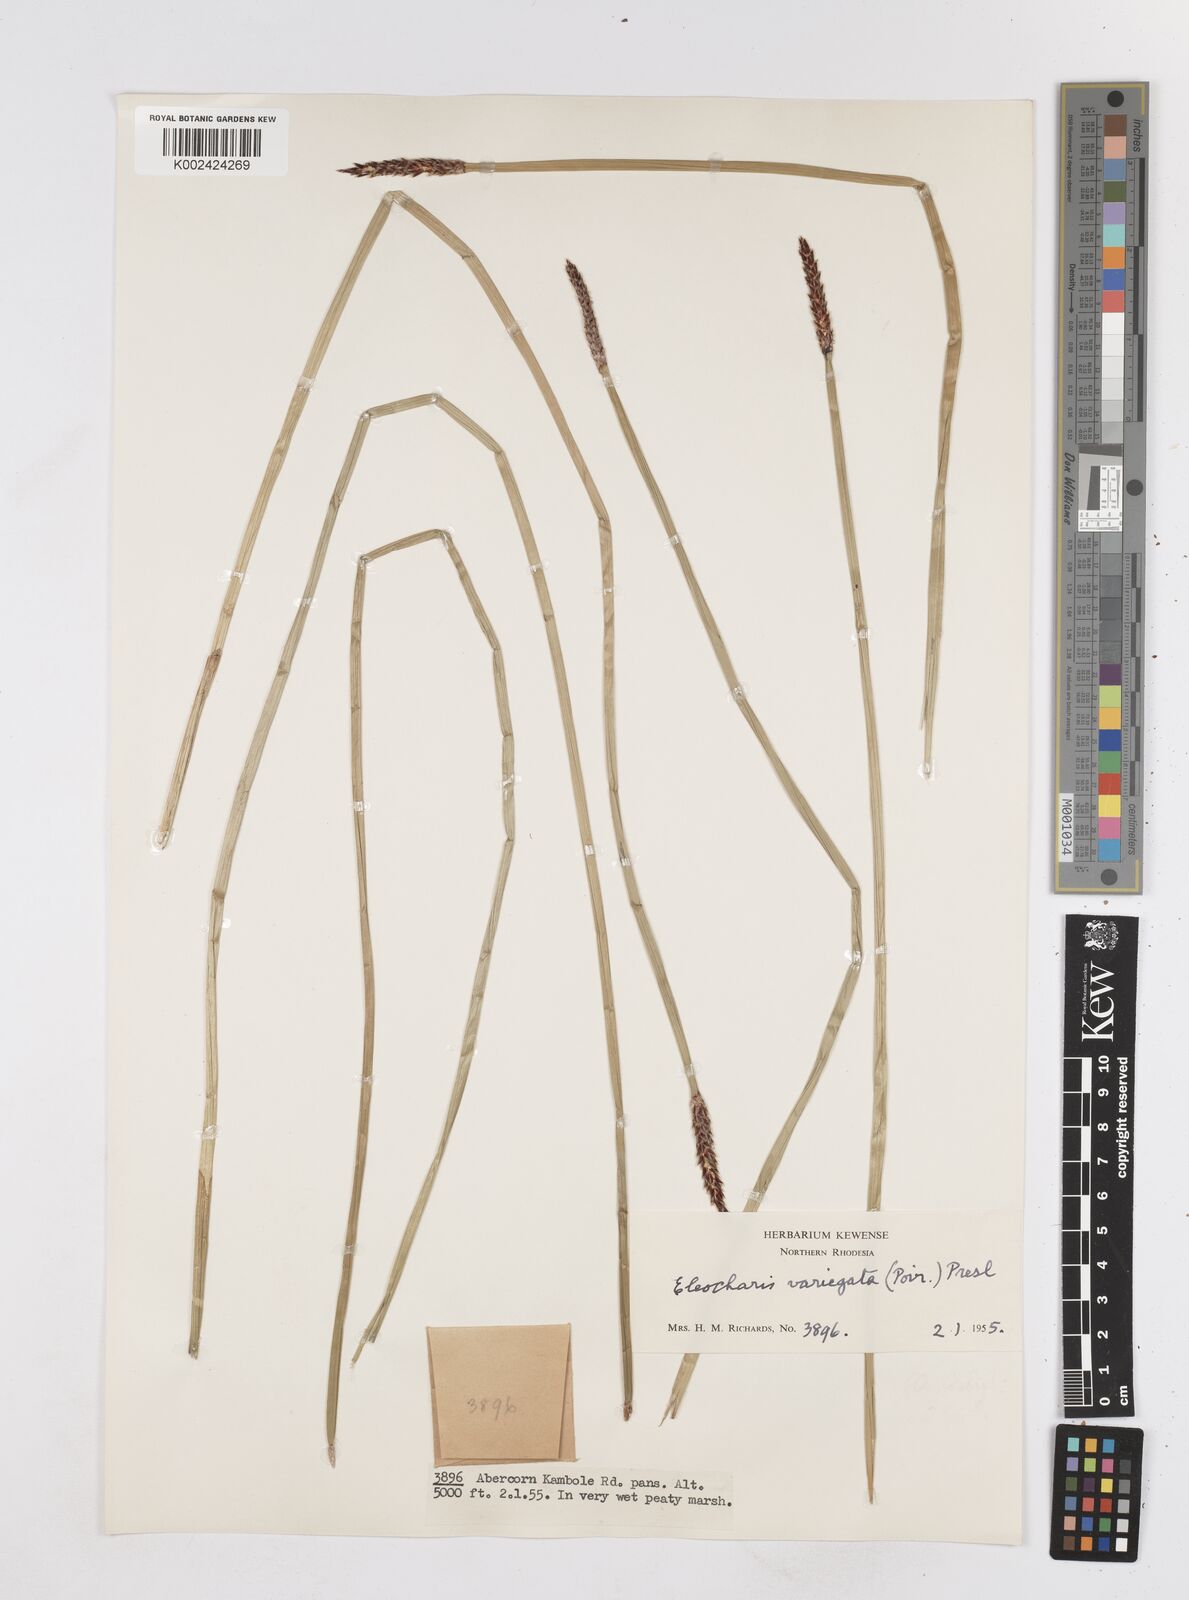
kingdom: Plantae
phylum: Tracheophyta
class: Liliopsida
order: Poales
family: Cyperaceae
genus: Eleocharis
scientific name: Eleocharis variegata
